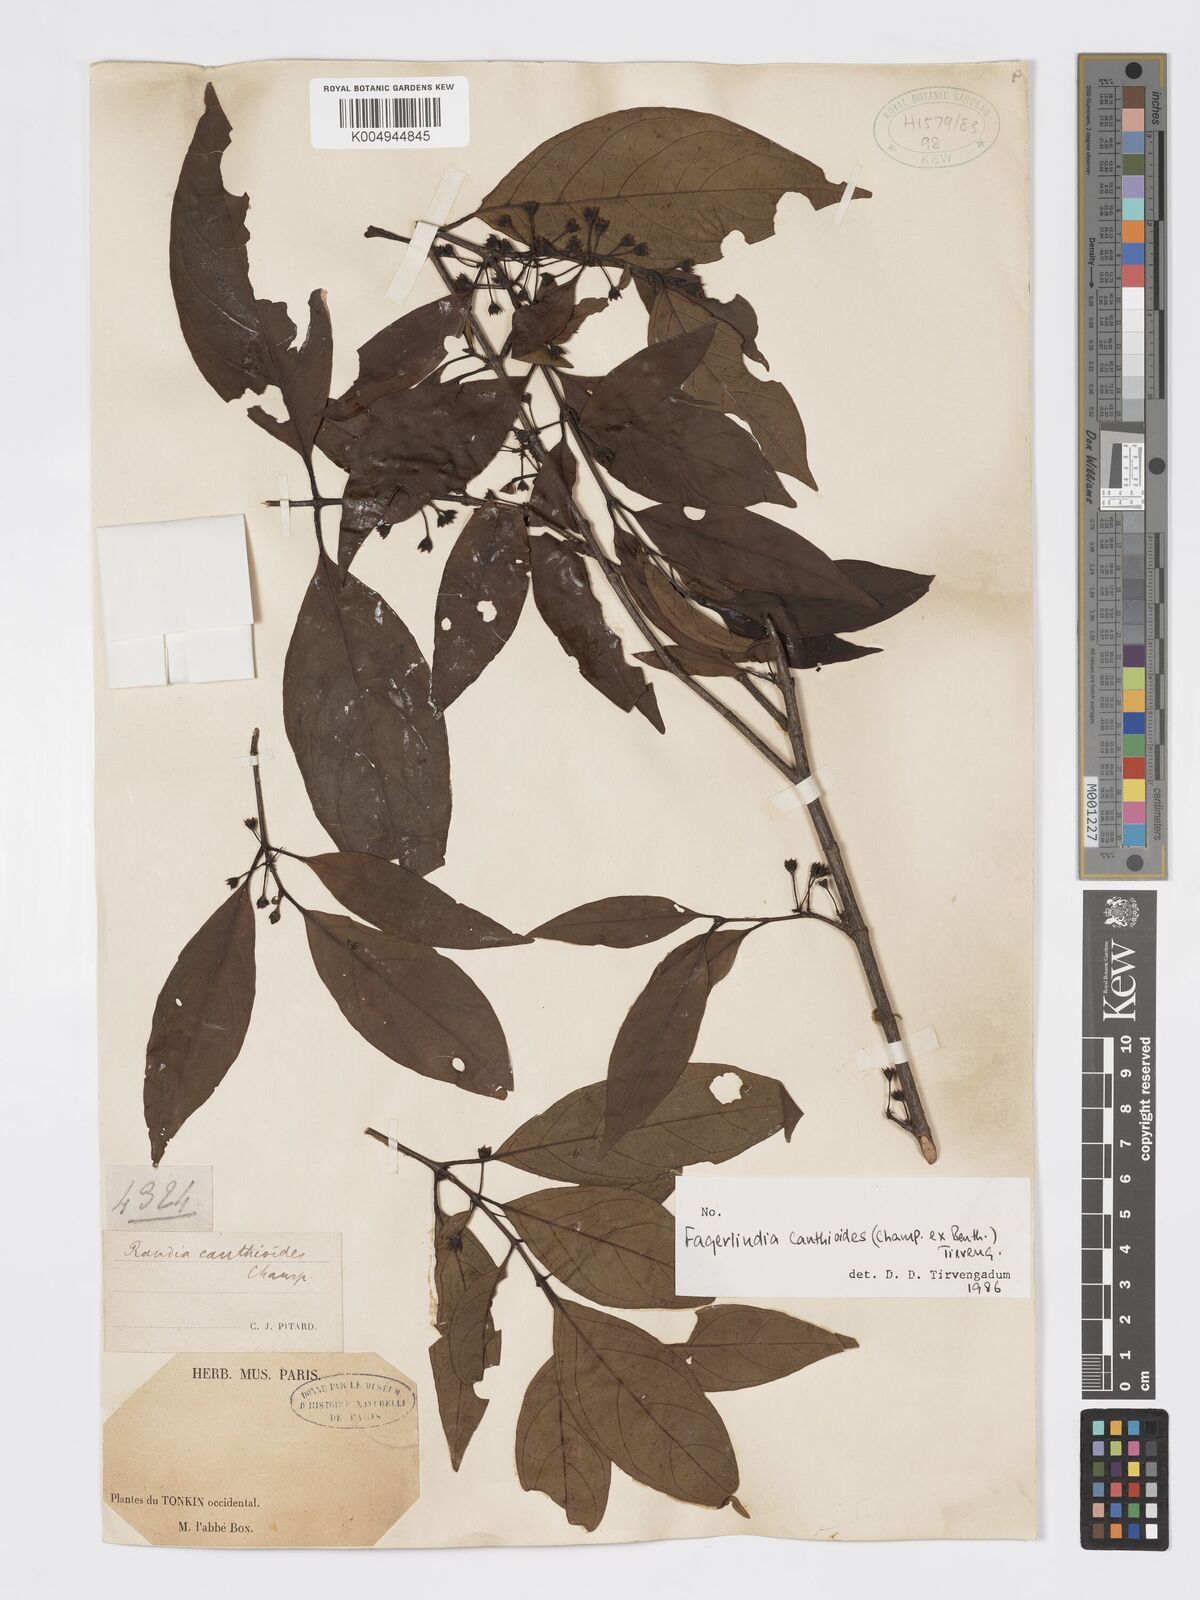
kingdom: Plantae
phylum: Tracheophyta
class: Magnoliopsida
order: Gentianales
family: Rubiaceae
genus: Aidia
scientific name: Aidia canthioides
